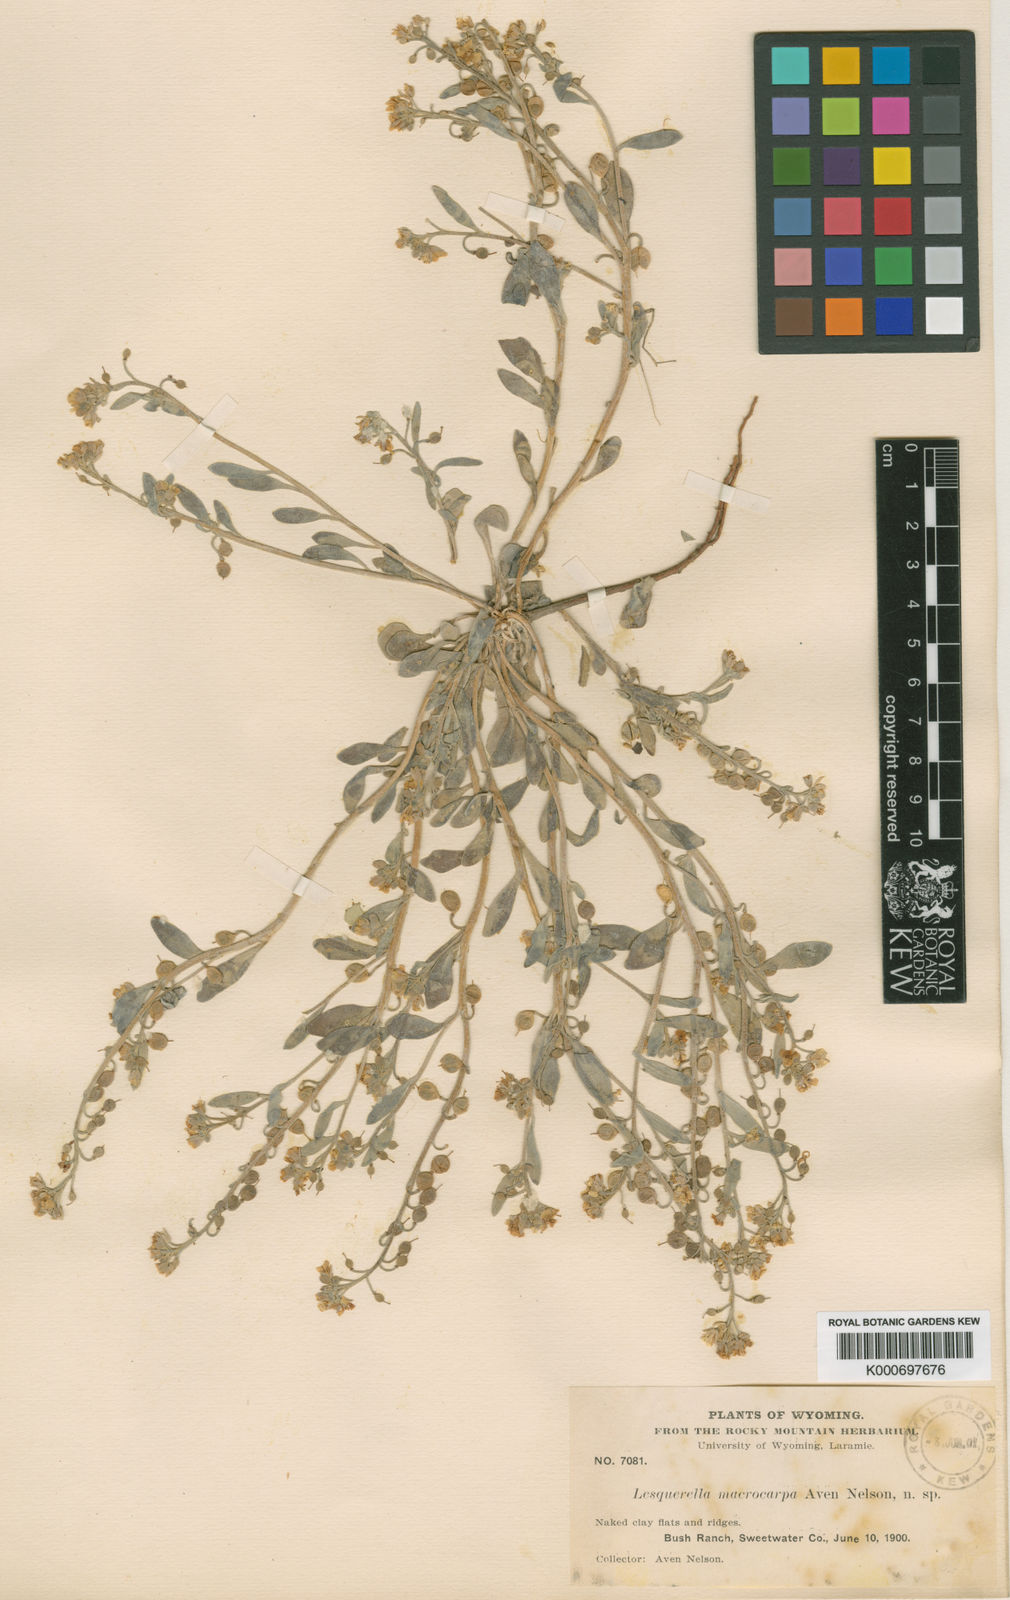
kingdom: Plantae
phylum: Tracheophyta
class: Magnoliopsida
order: Brassicales
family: Brassicaceae
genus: Physaria
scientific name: Physaria macrocarpa
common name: Large-fruit bladderpod
